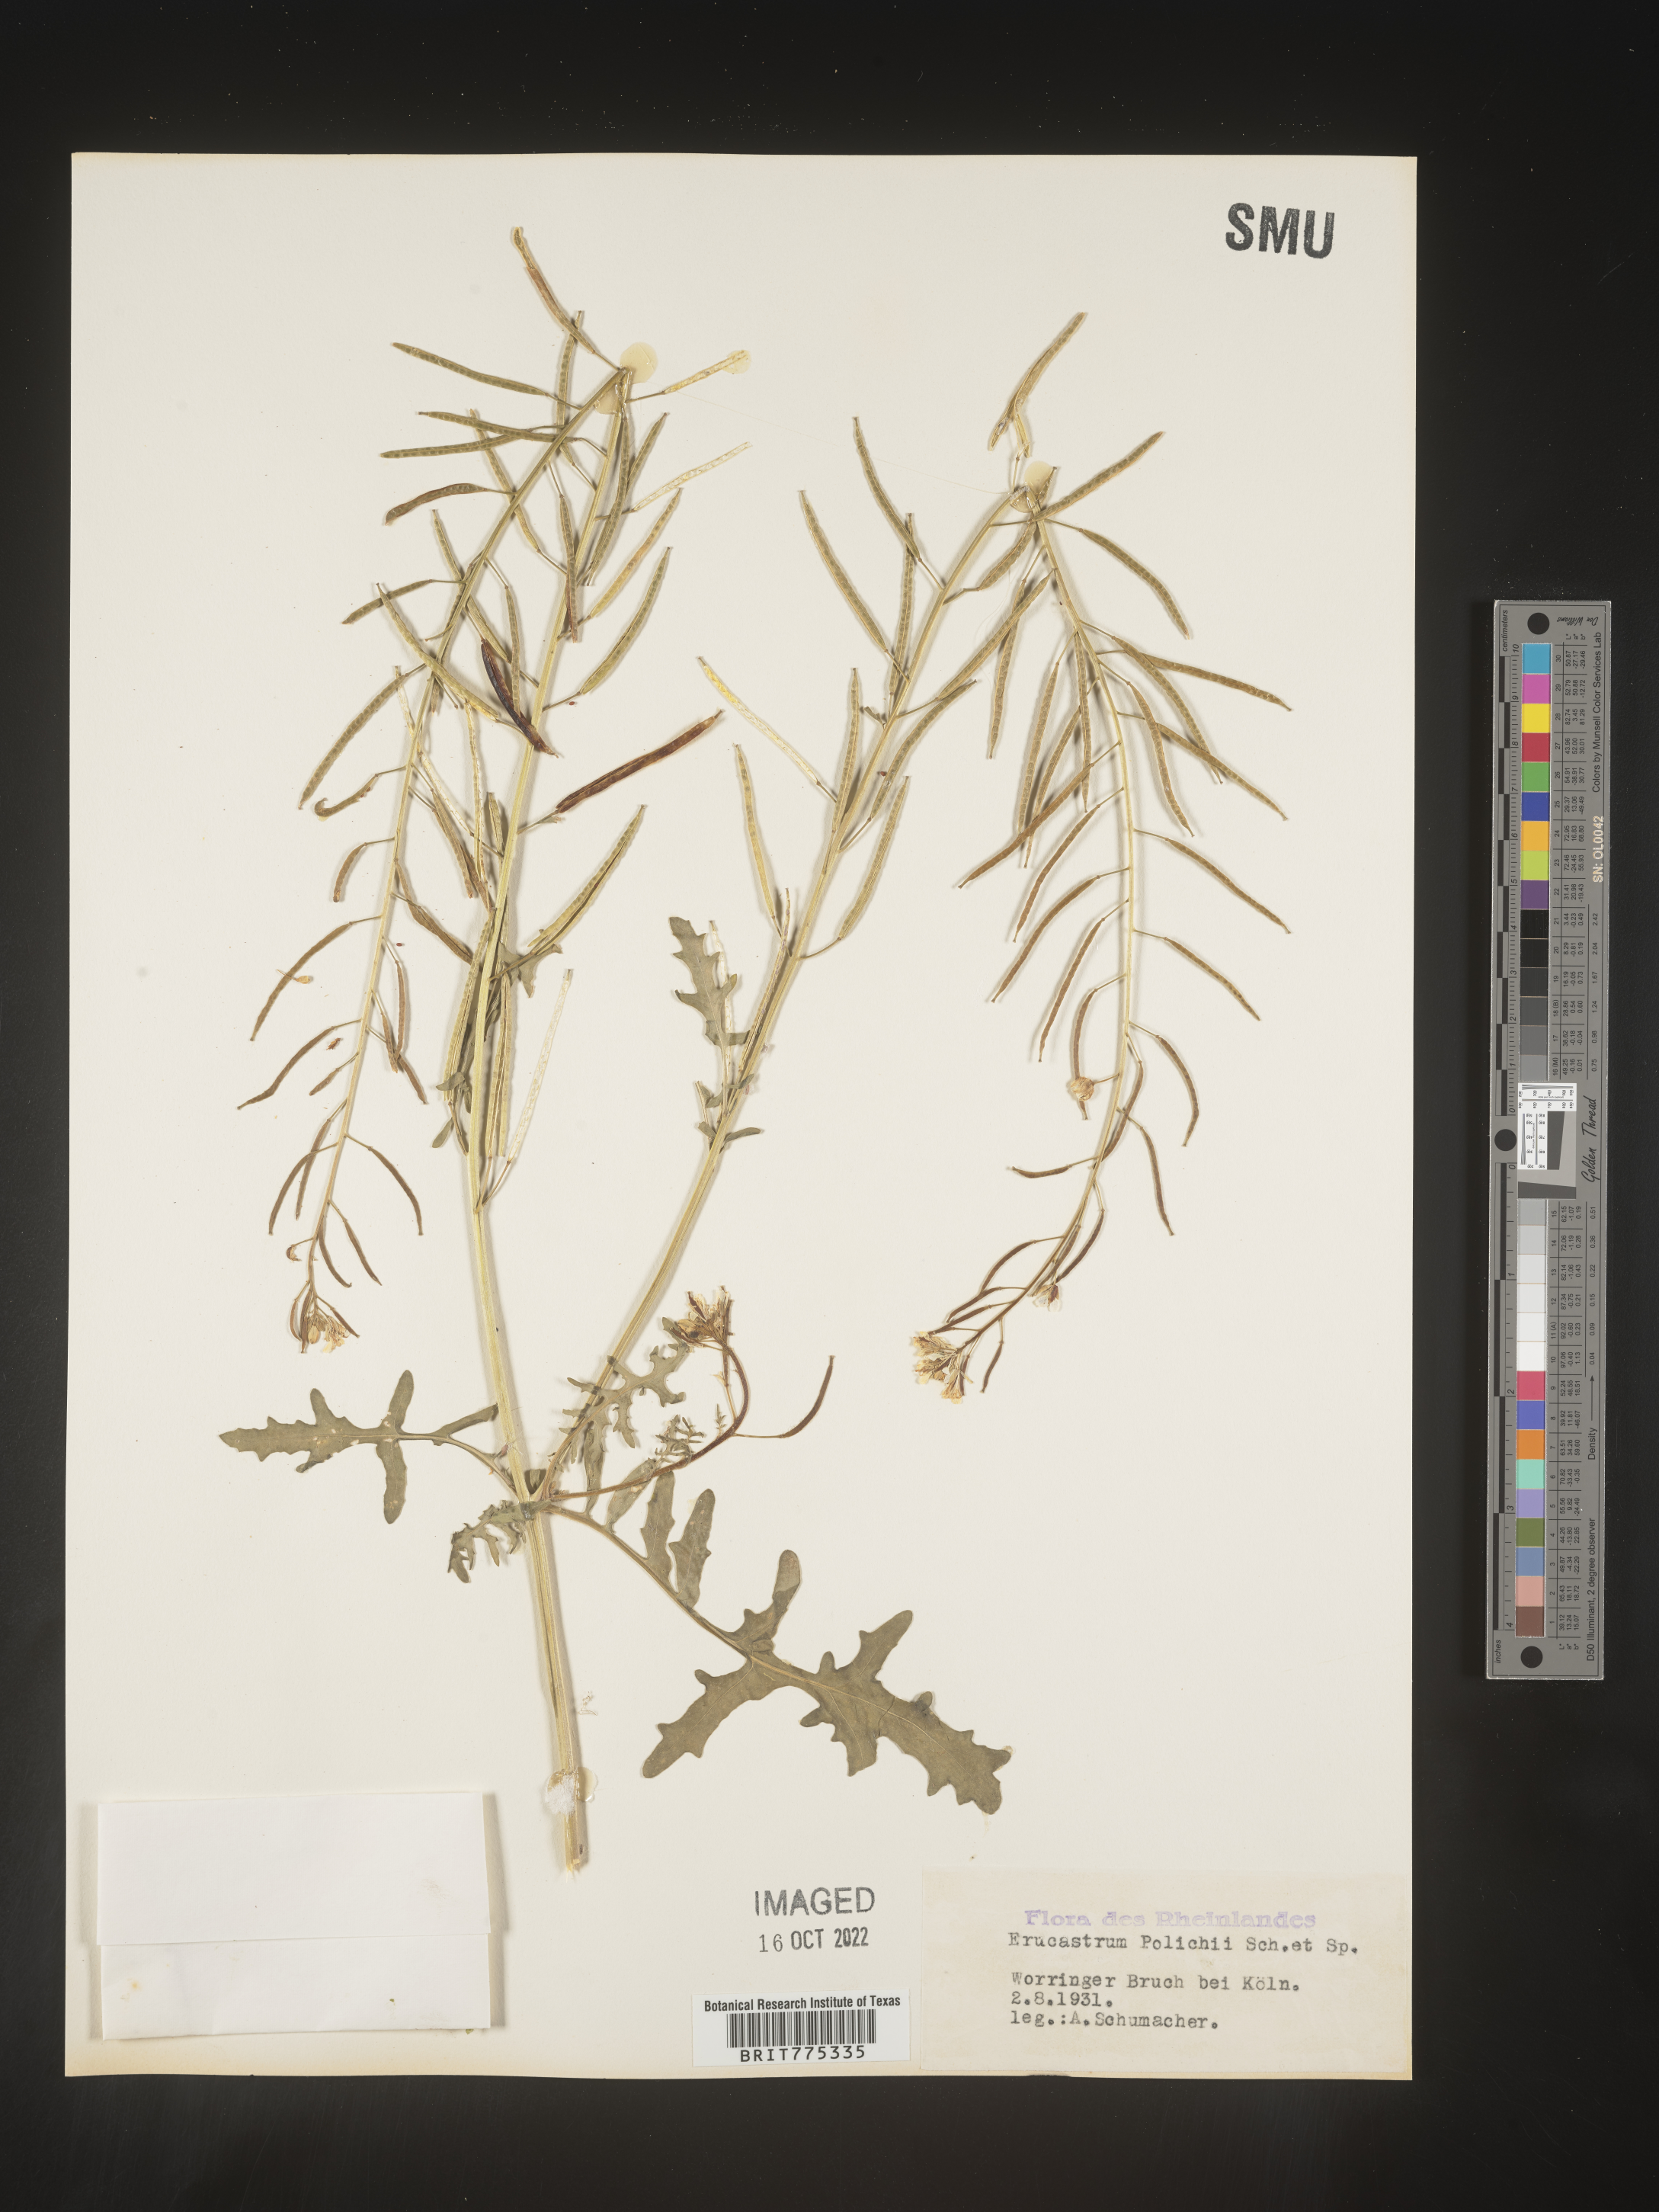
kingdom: Plantae
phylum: Tracheophyta
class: Magnoliopsida
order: Brassicales
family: Brassicaceae
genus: Erucastrum
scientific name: Erucastrum
